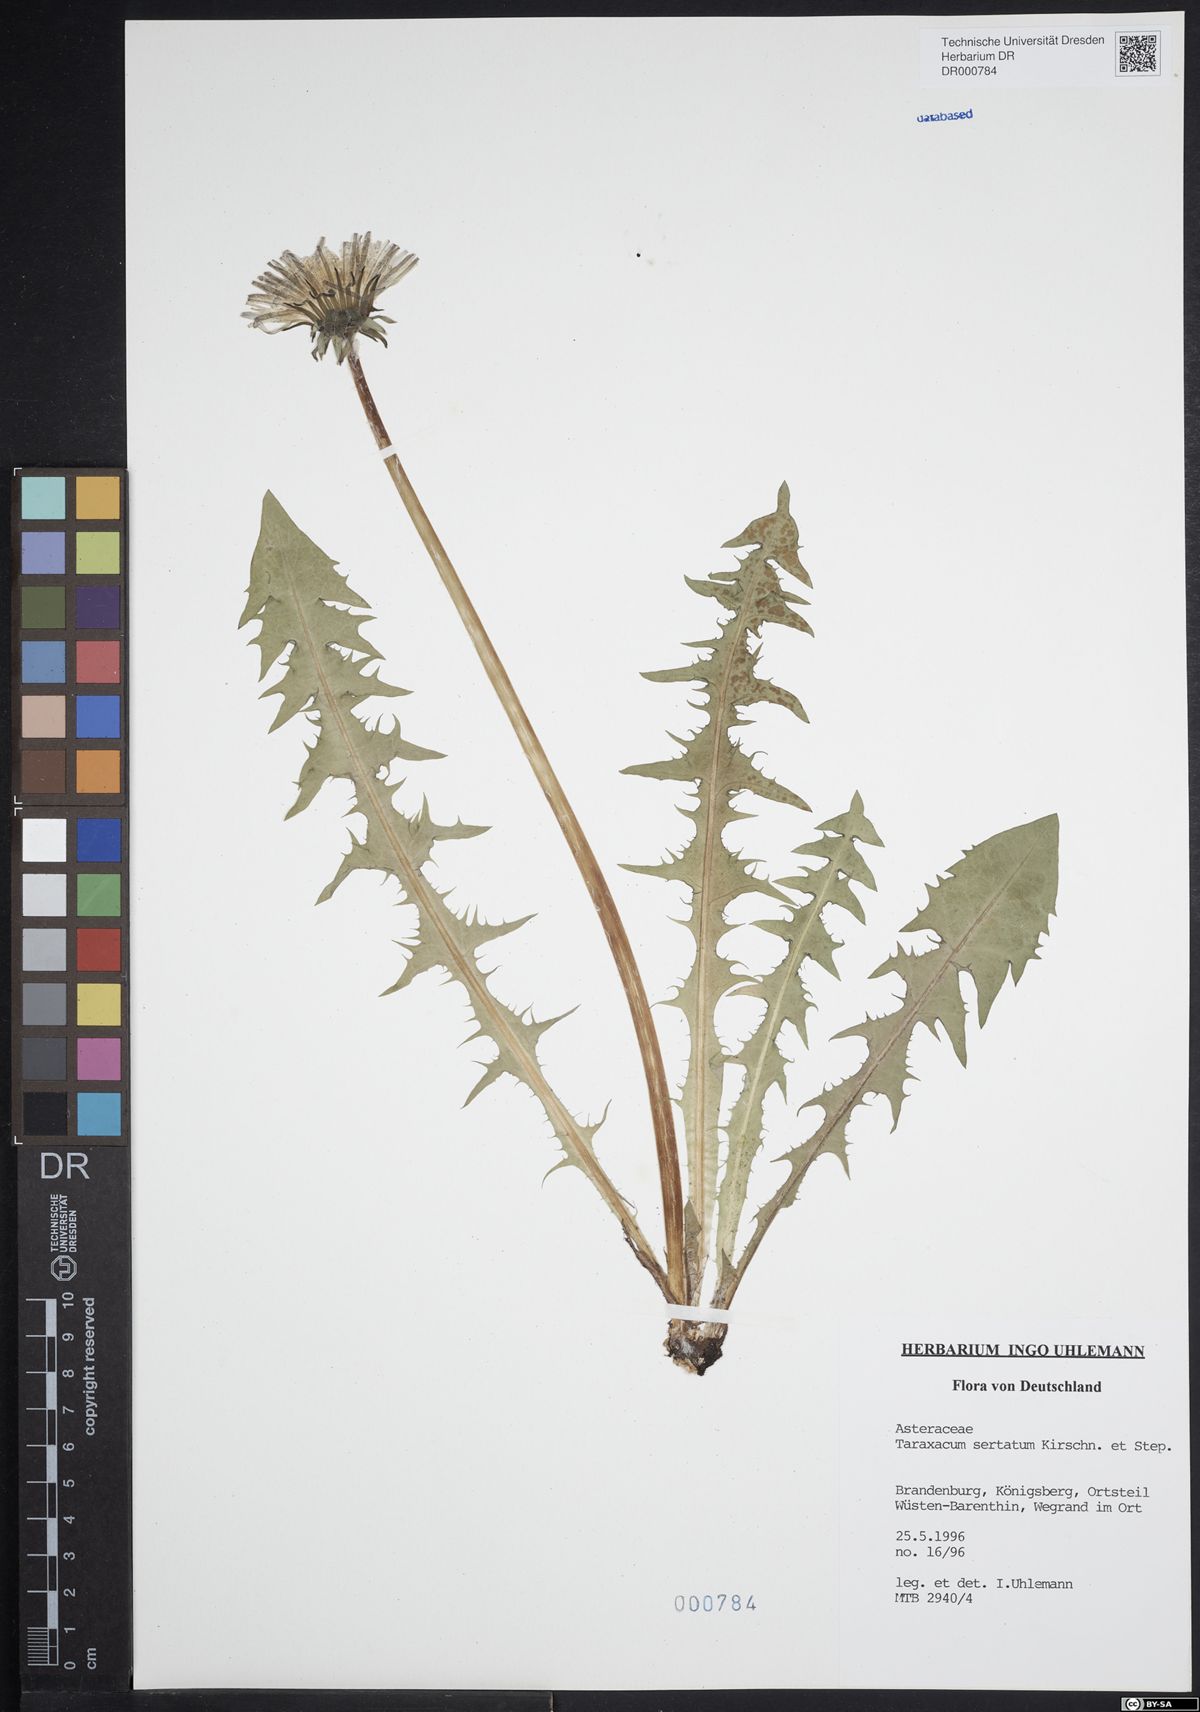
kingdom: Plantae
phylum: Tracheophyta
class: Magnoliopsida
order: Asterales
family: Asteraceae
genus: Taraxacum
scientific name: Taraxacum sertatum
